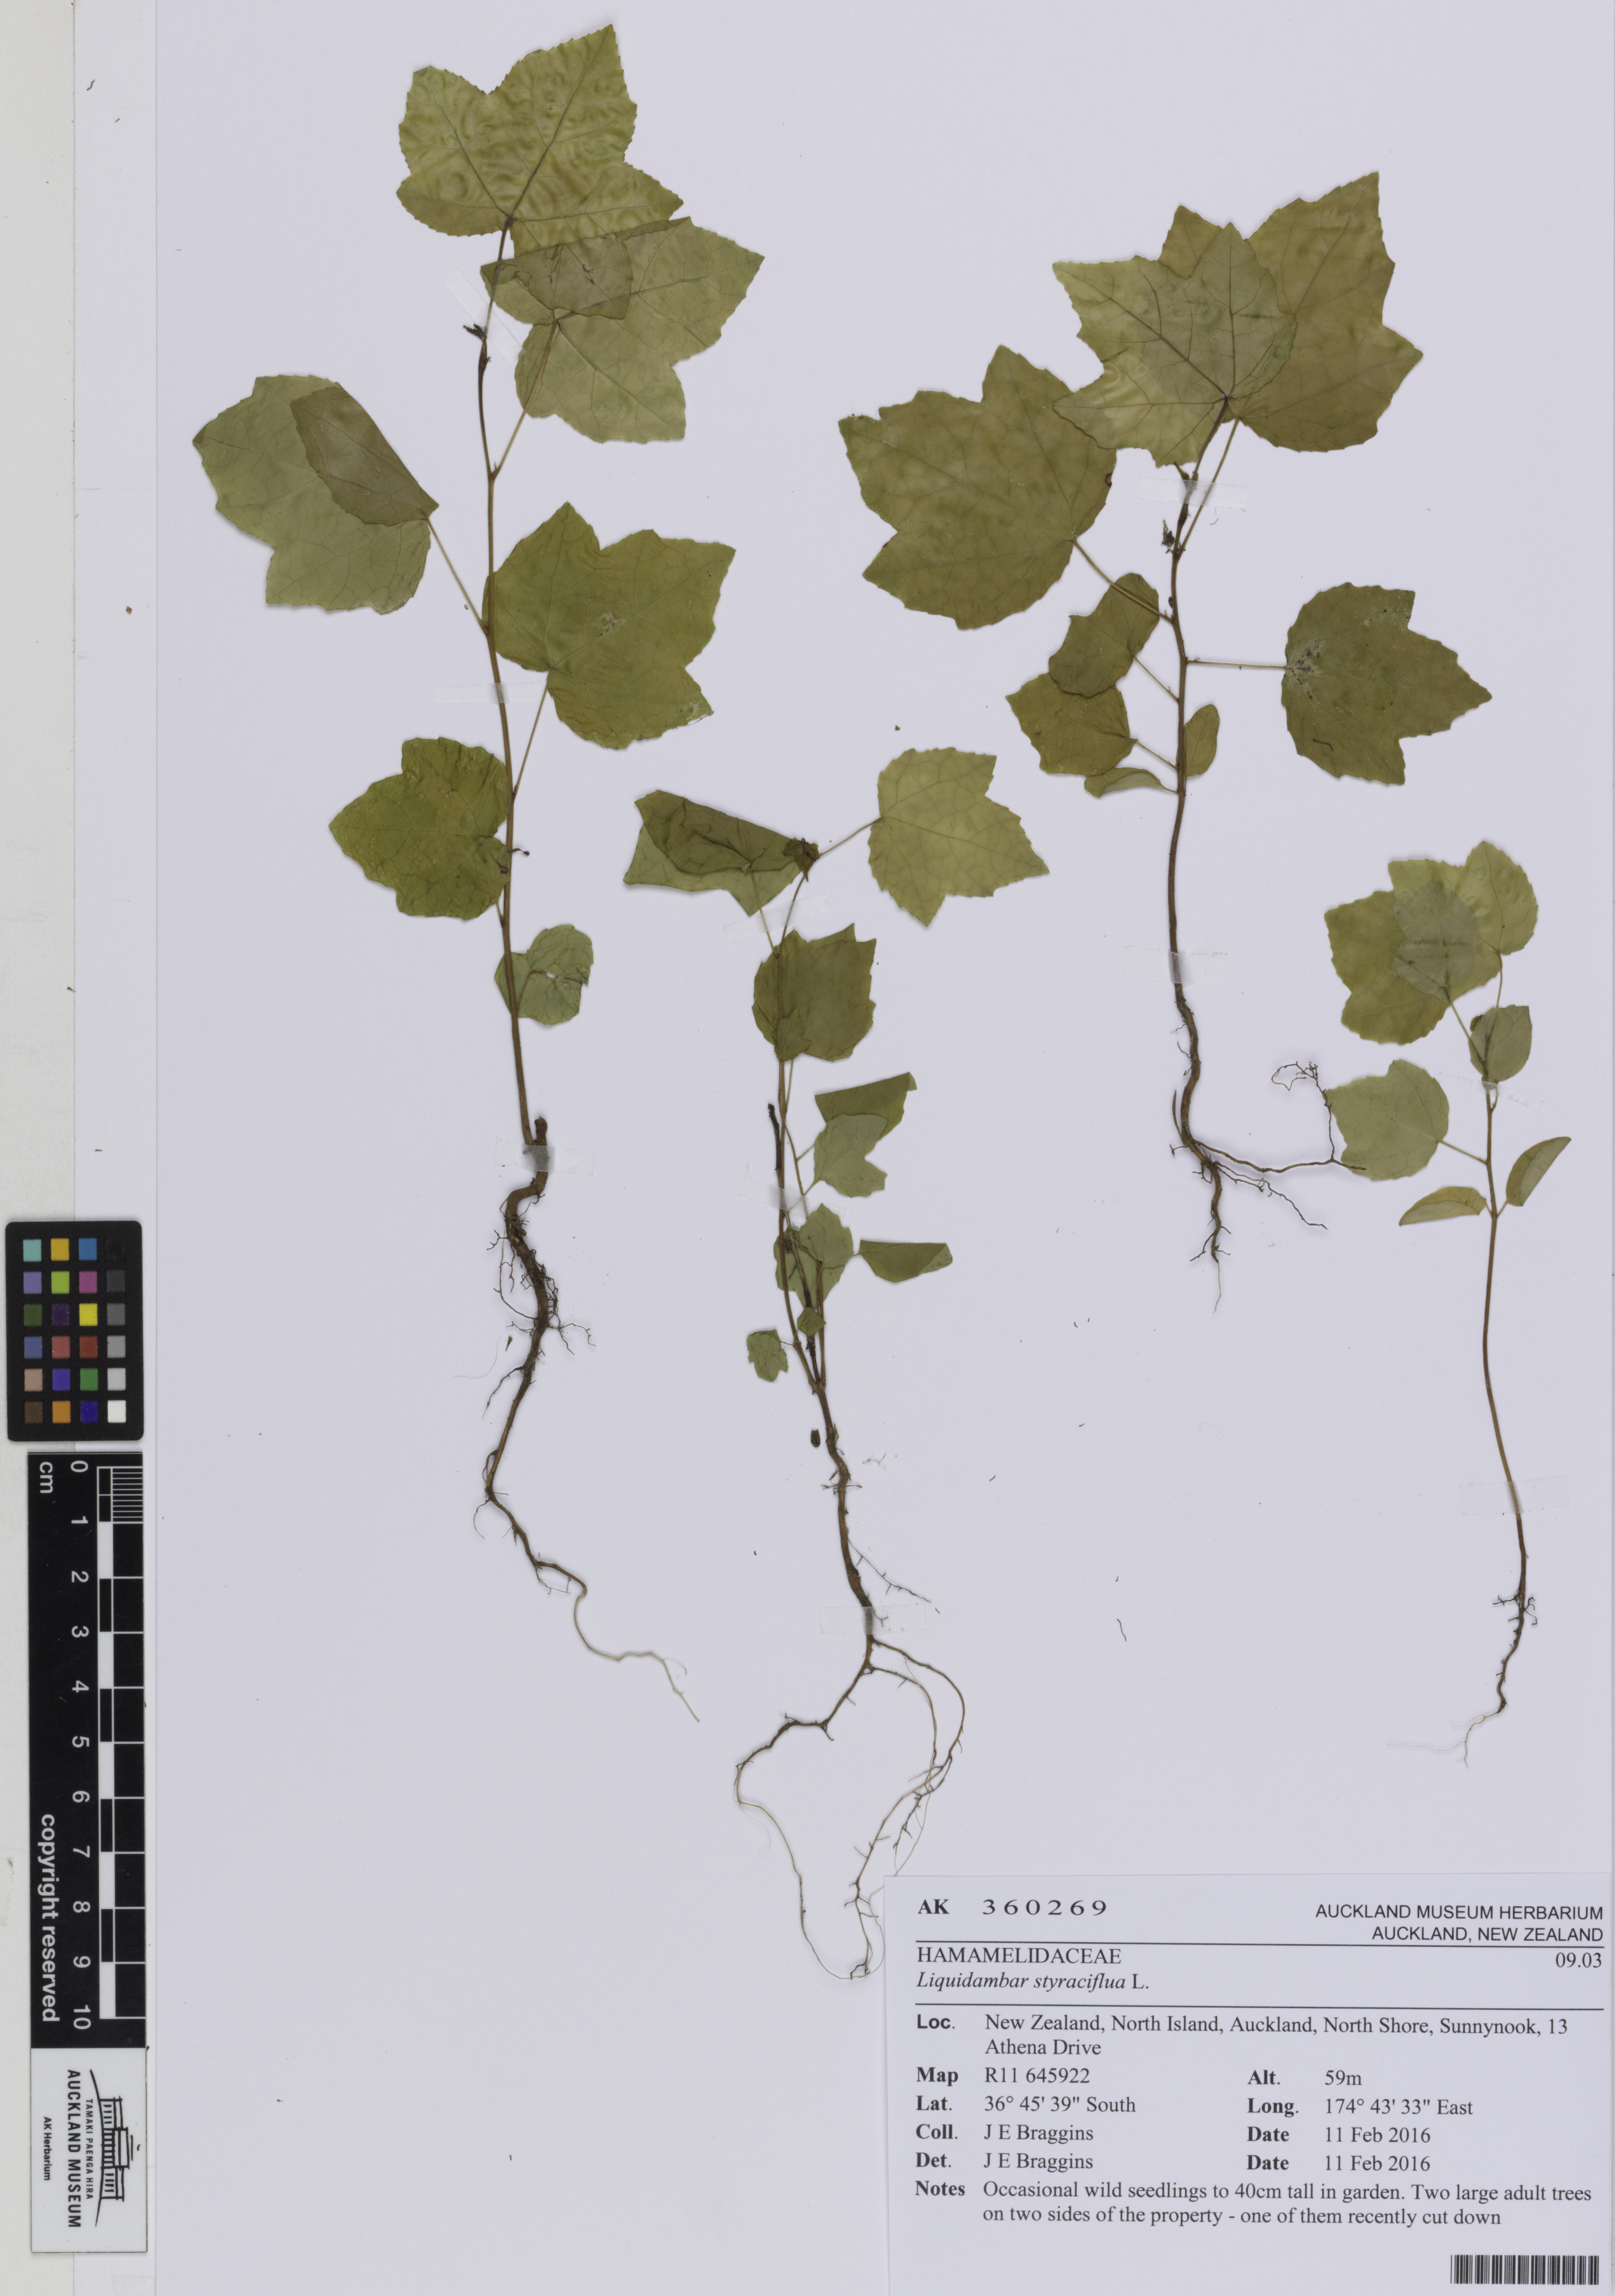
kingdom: Plantae
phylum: Tracheophyta
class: Magnoliopsida
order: Saxifragales
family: Altingiaceae
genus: Liquidambar
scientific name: Liquidambar styraciflua
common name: Sweet gum
